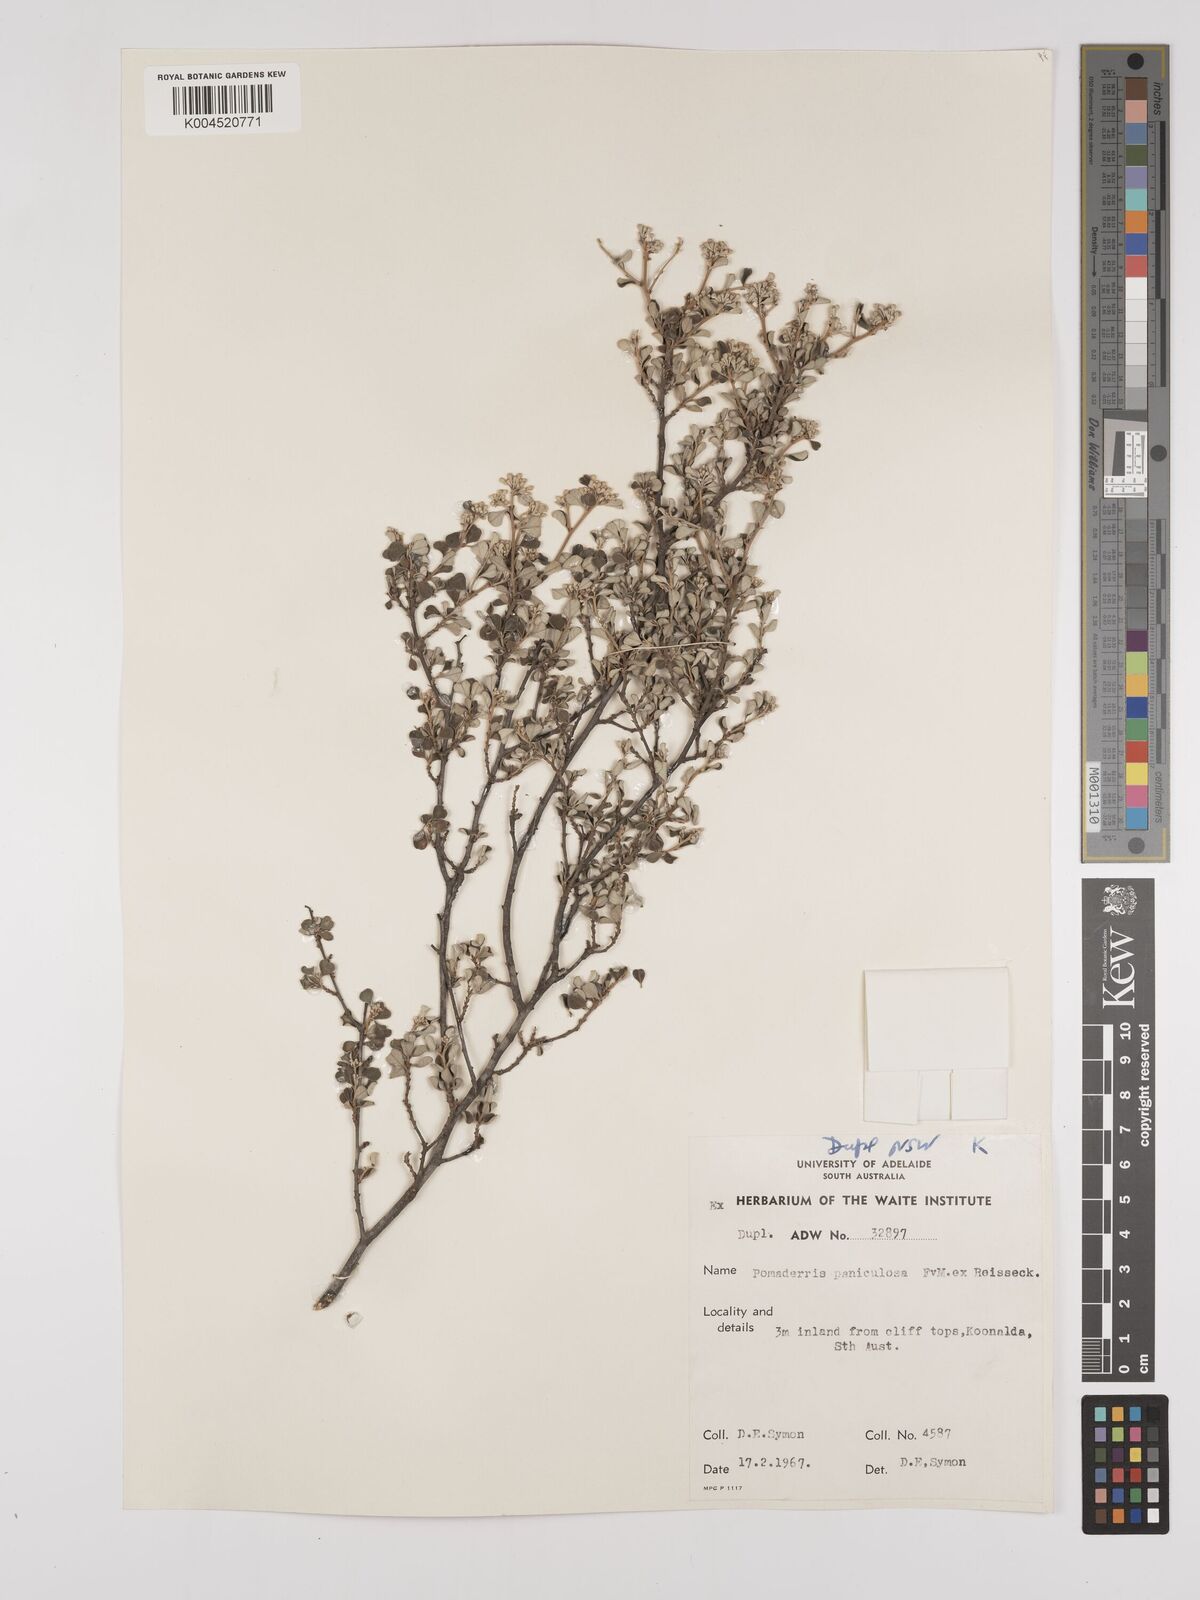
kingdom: Plantae
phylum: Tracheophyta
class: Magnoliopsida
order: Rosales
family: Rhamnaceae
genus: Pomaderris
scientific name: Pomaderris paniculosa
